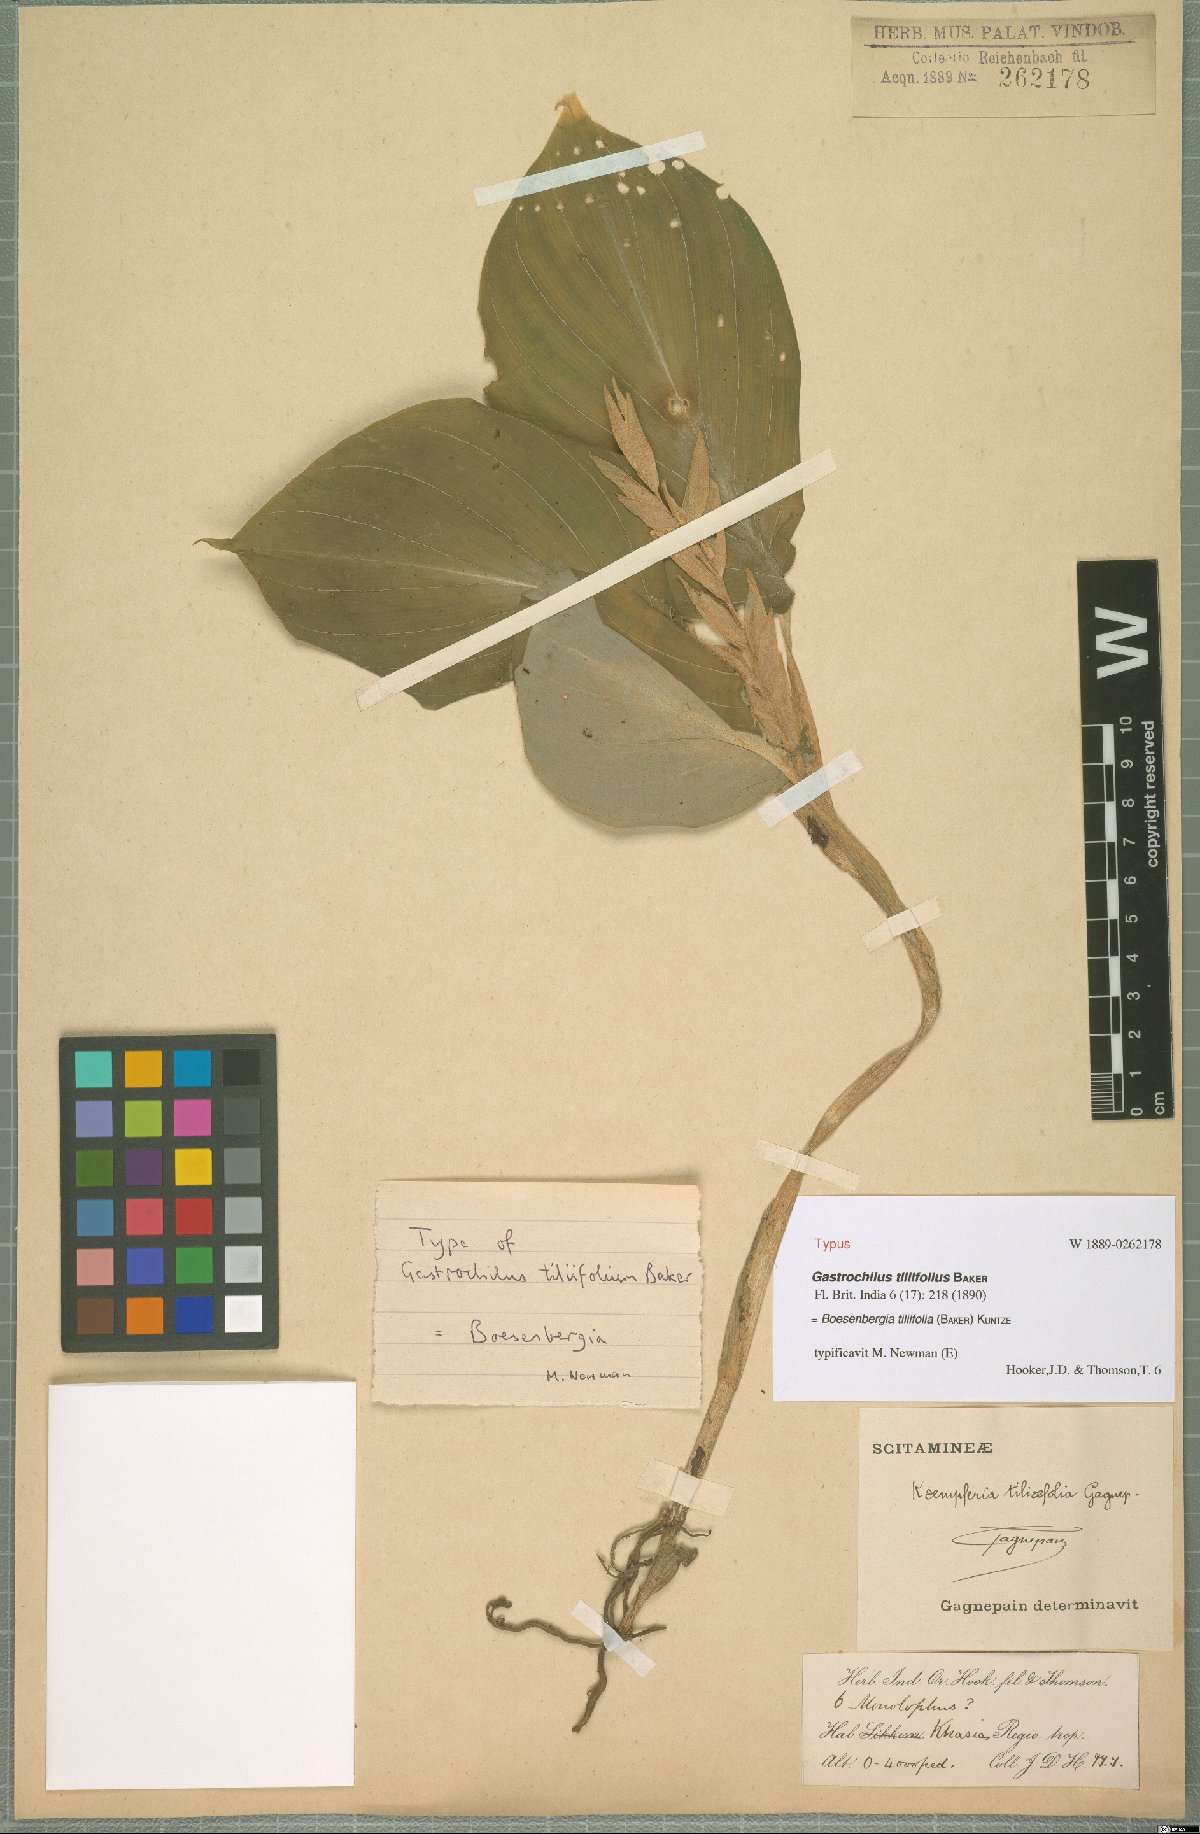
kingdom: Plantae
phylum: Tracheophyta
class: Liliopsida
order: Zingiberales
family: Zingiberaceae
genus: Boesenbergia
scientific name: Boesenbergia tiliifolia
